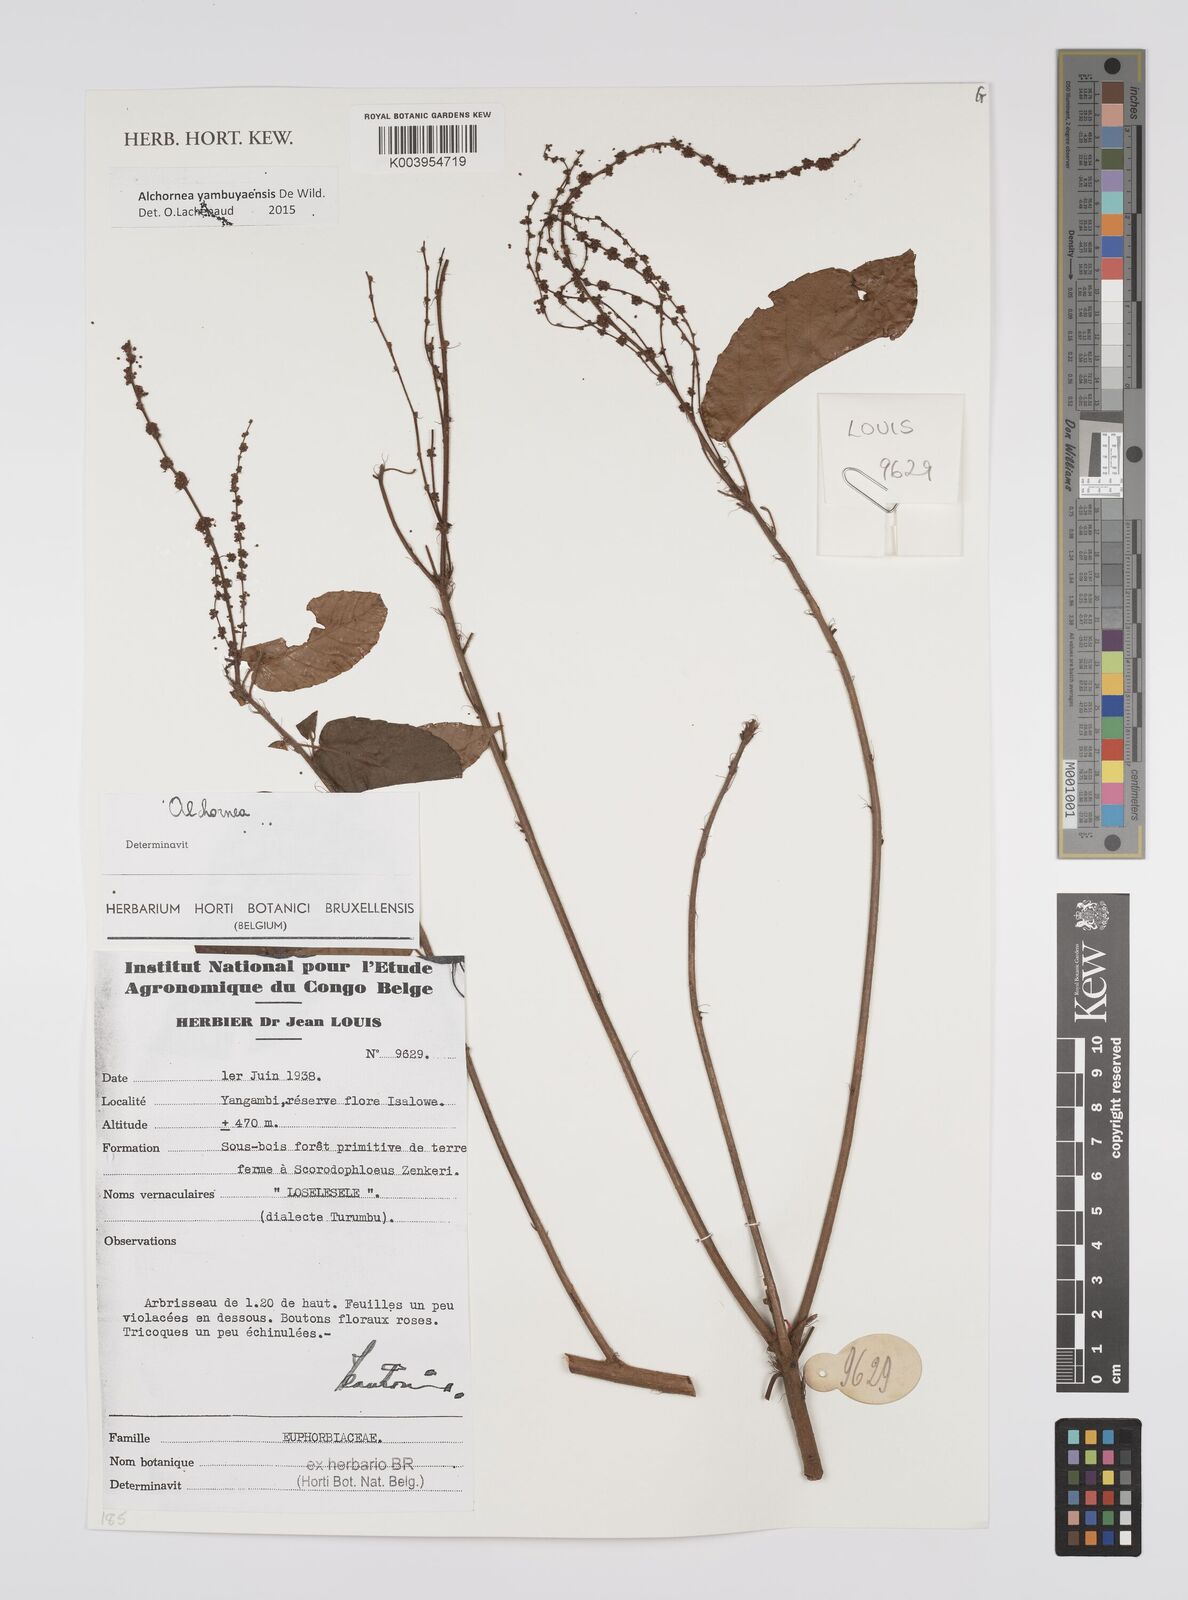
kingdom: Plantae
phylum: Tracheophyta
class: Magnoliopsida
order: Malpighiales
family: Euphorbiaceae
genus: Alchornea
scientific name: Alchornea yambuyaensis
